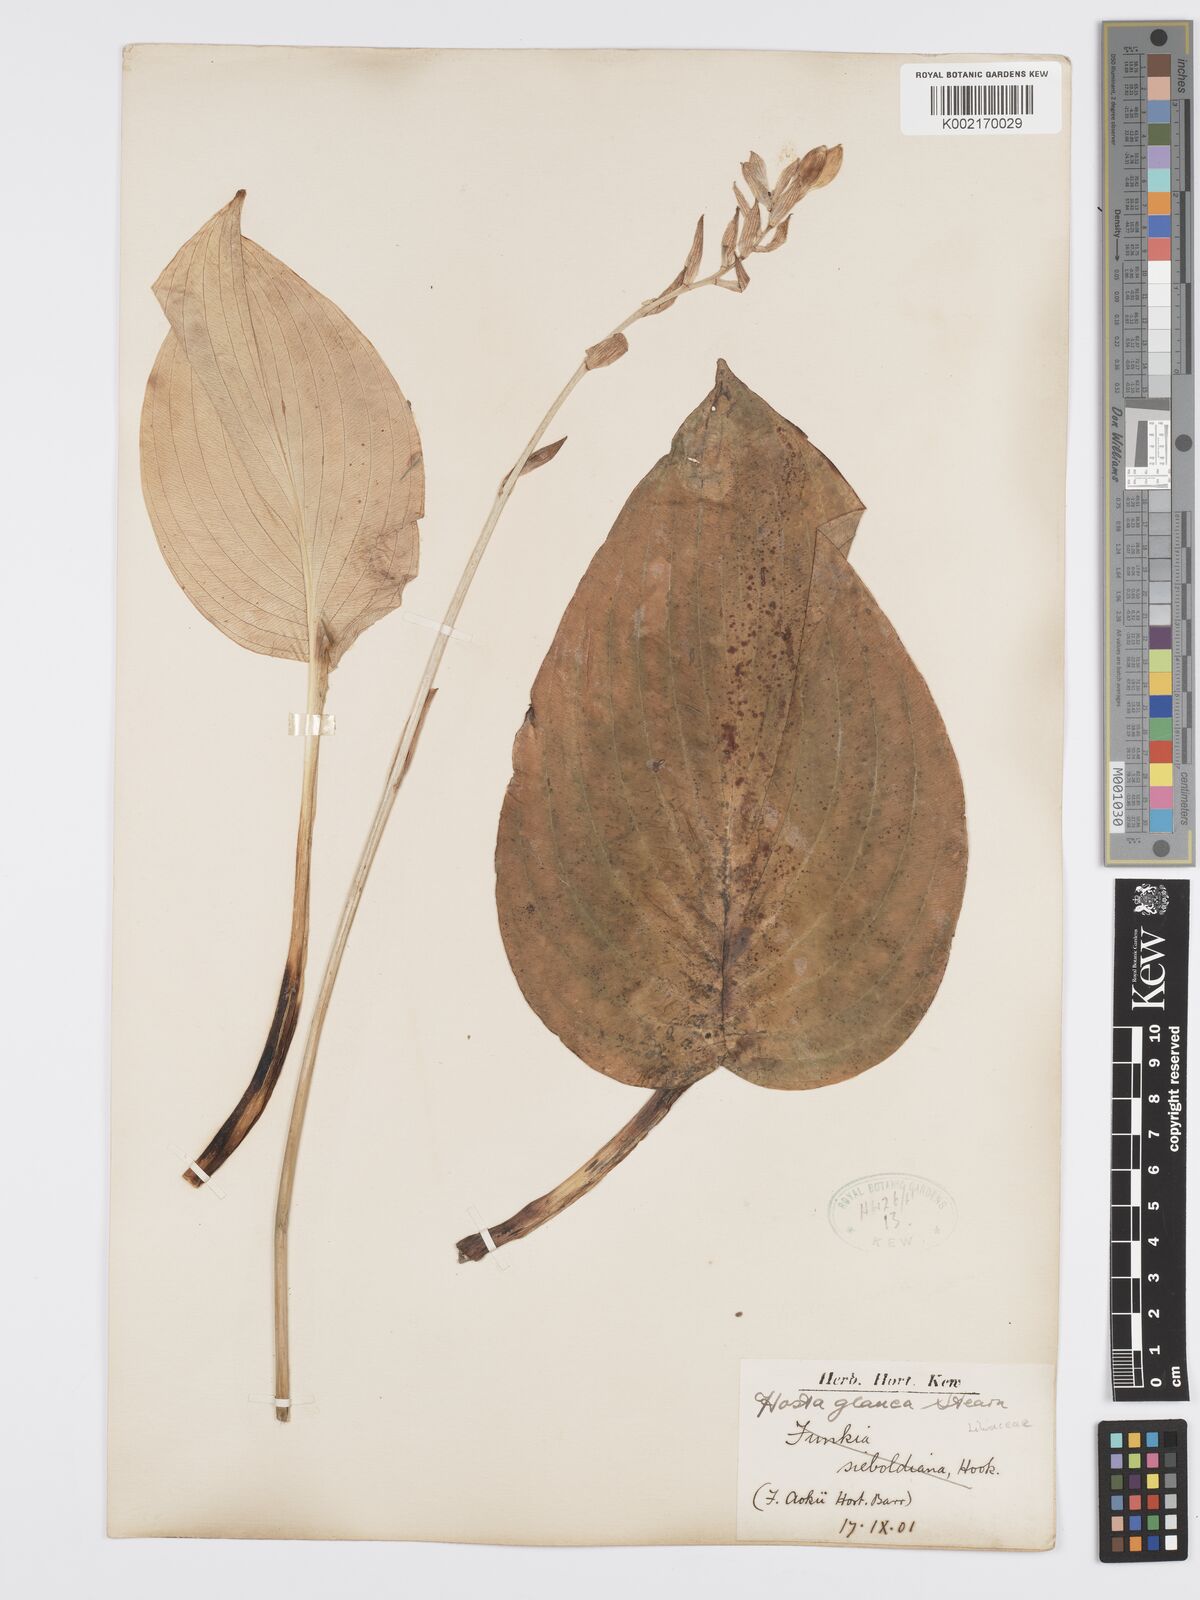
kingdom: Plantae
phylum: Tracheophyta
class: Liliopsida
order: Asparagales
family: Asparagaceae
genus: Hosta
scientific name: Hosta sieboldiana
